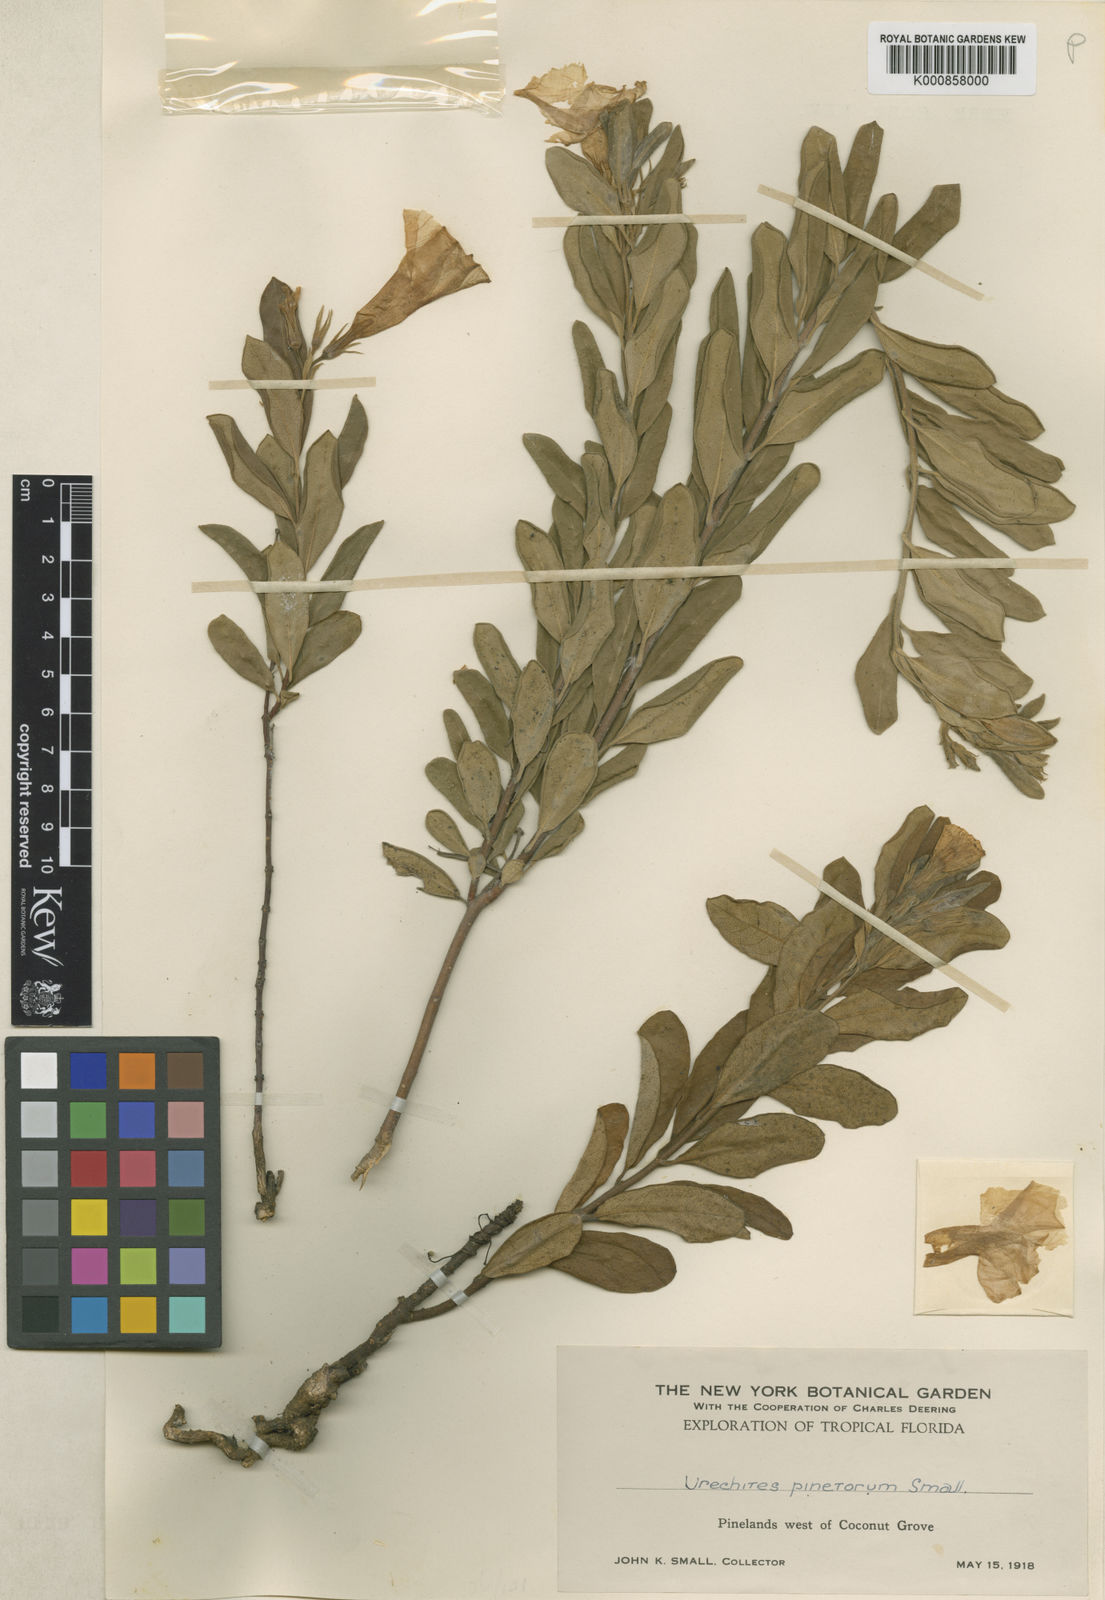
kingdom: Plantae
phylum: Tracheophyta
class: Magnoliopsida
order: Gentianales
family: Apocynaceae
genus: Pentalinon
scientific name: Pentalinon luteum
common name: Licebush
